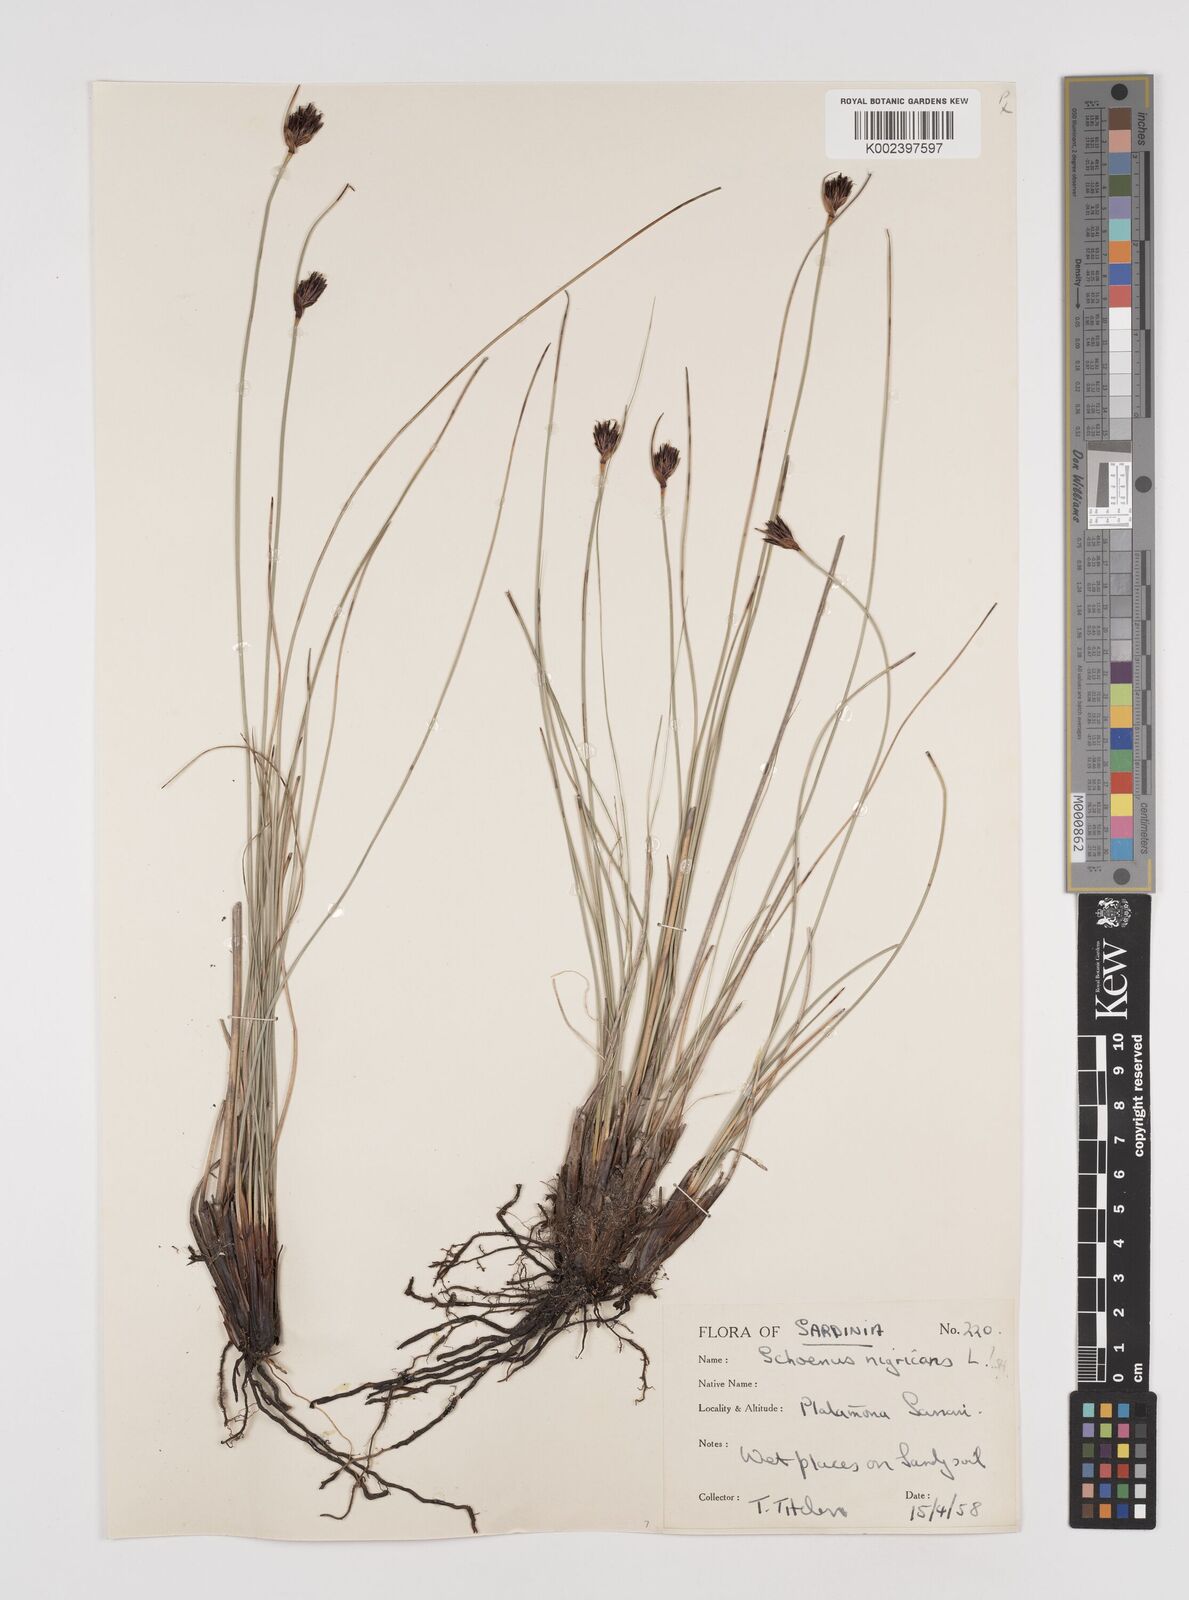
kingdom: Plantae
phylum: Tracheophyta
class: Liliopsida
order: Poales
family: Cyperaceae
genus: Schoenus
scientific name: Schoenus nigricans
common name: Black bog-rush
